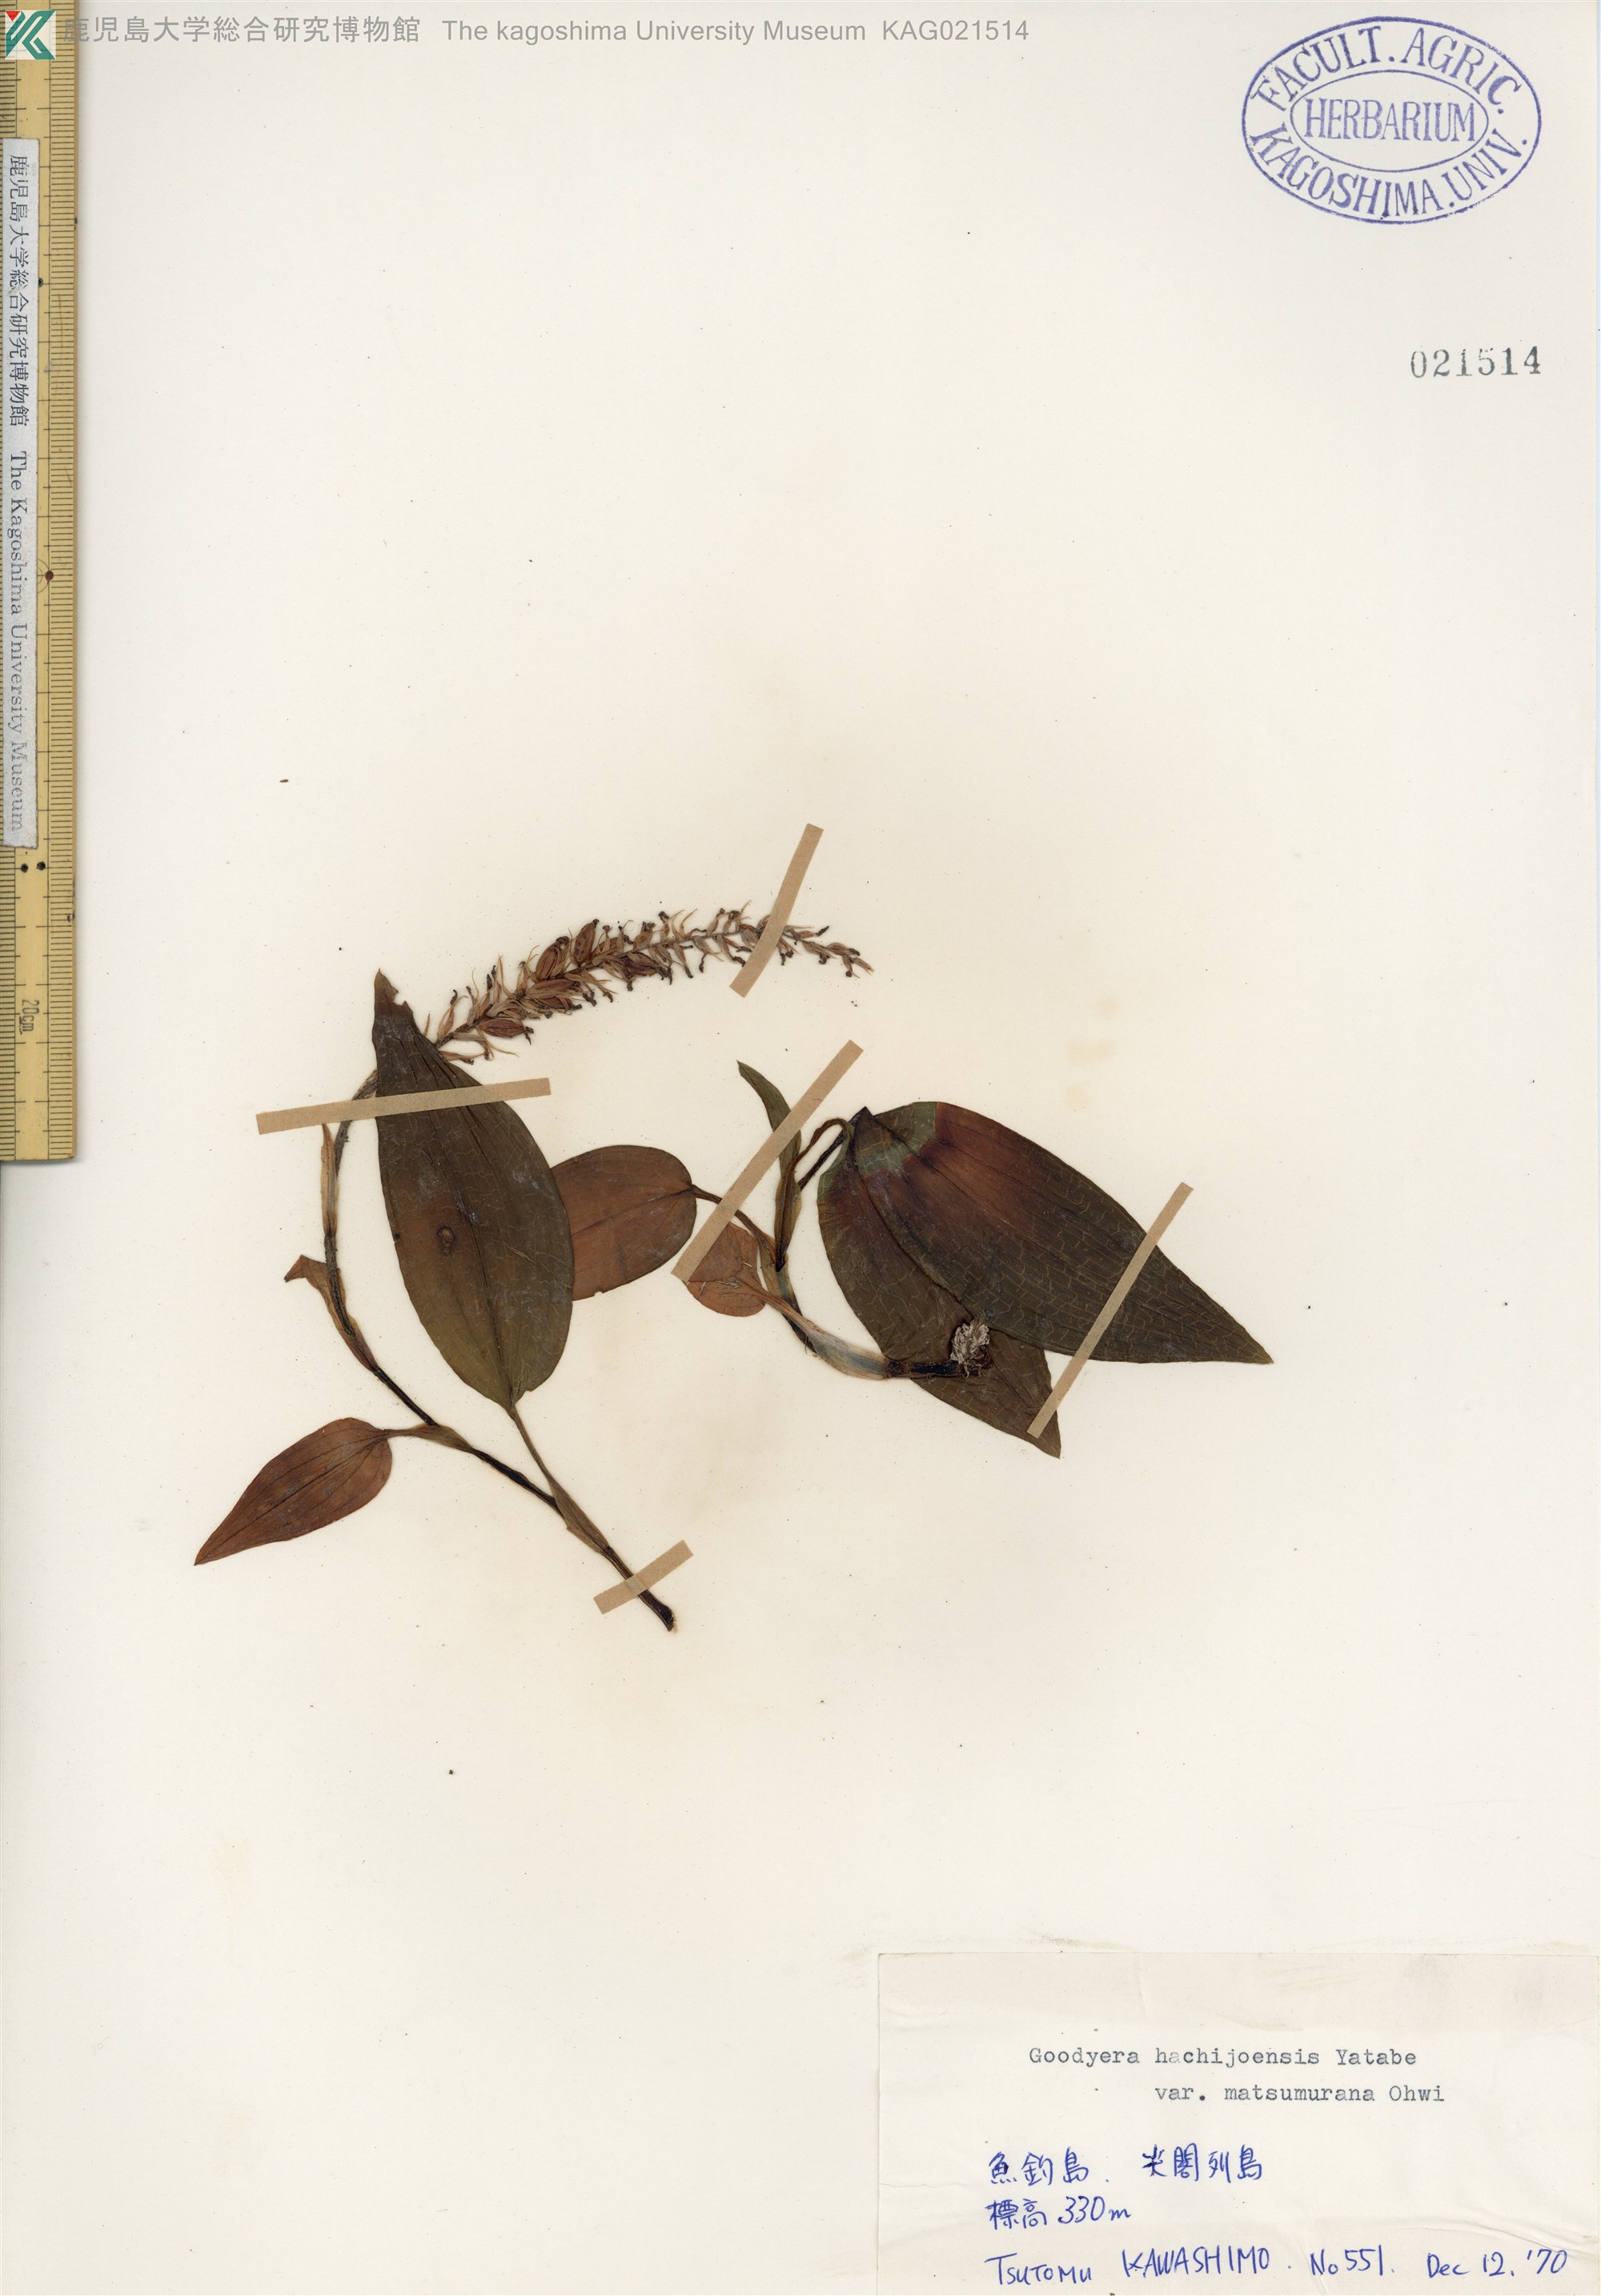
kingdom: Plantae
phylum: Tracheophyta
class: Liliopsida
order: Asparagales
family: Orchidaceae
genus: Goodyera
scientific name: Goodyera hachijoensis
